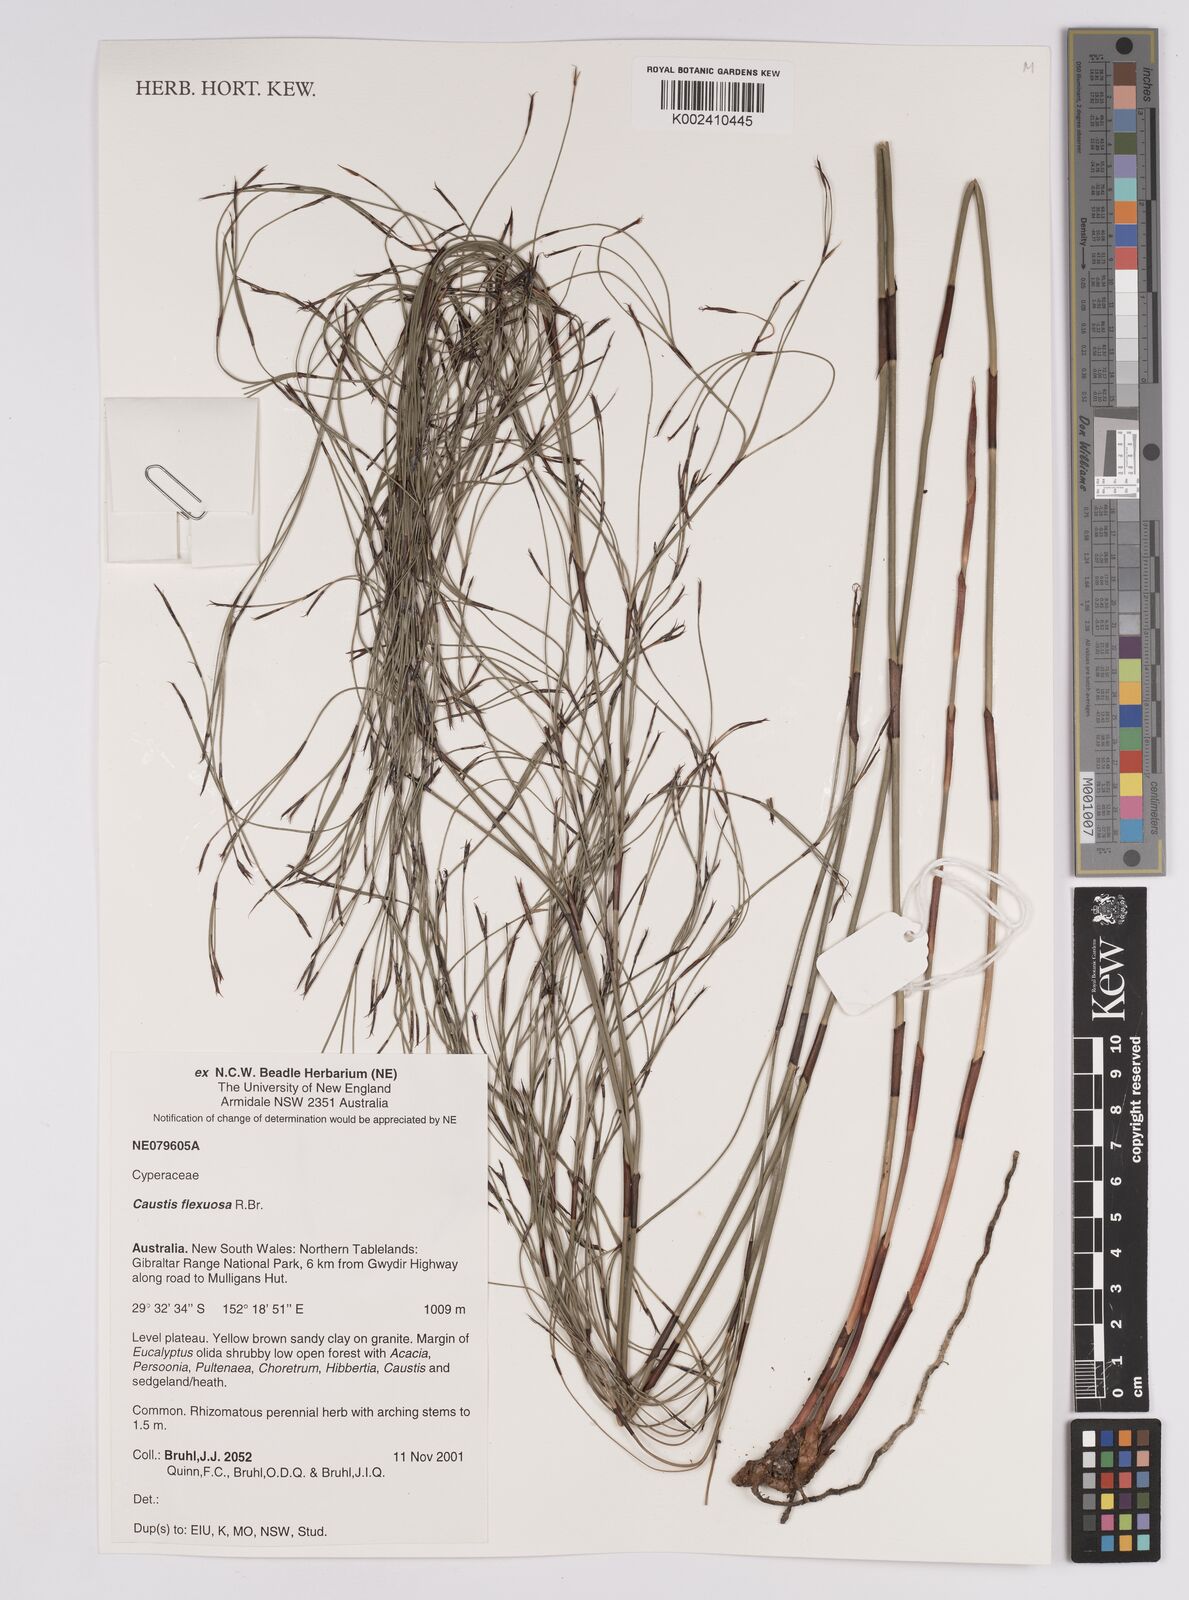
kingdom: Plantae
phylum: Tracheophyta
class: Liliopsida
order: Poales
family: Cyperaceae
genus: Caustis
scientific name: Caustis flexuosa
